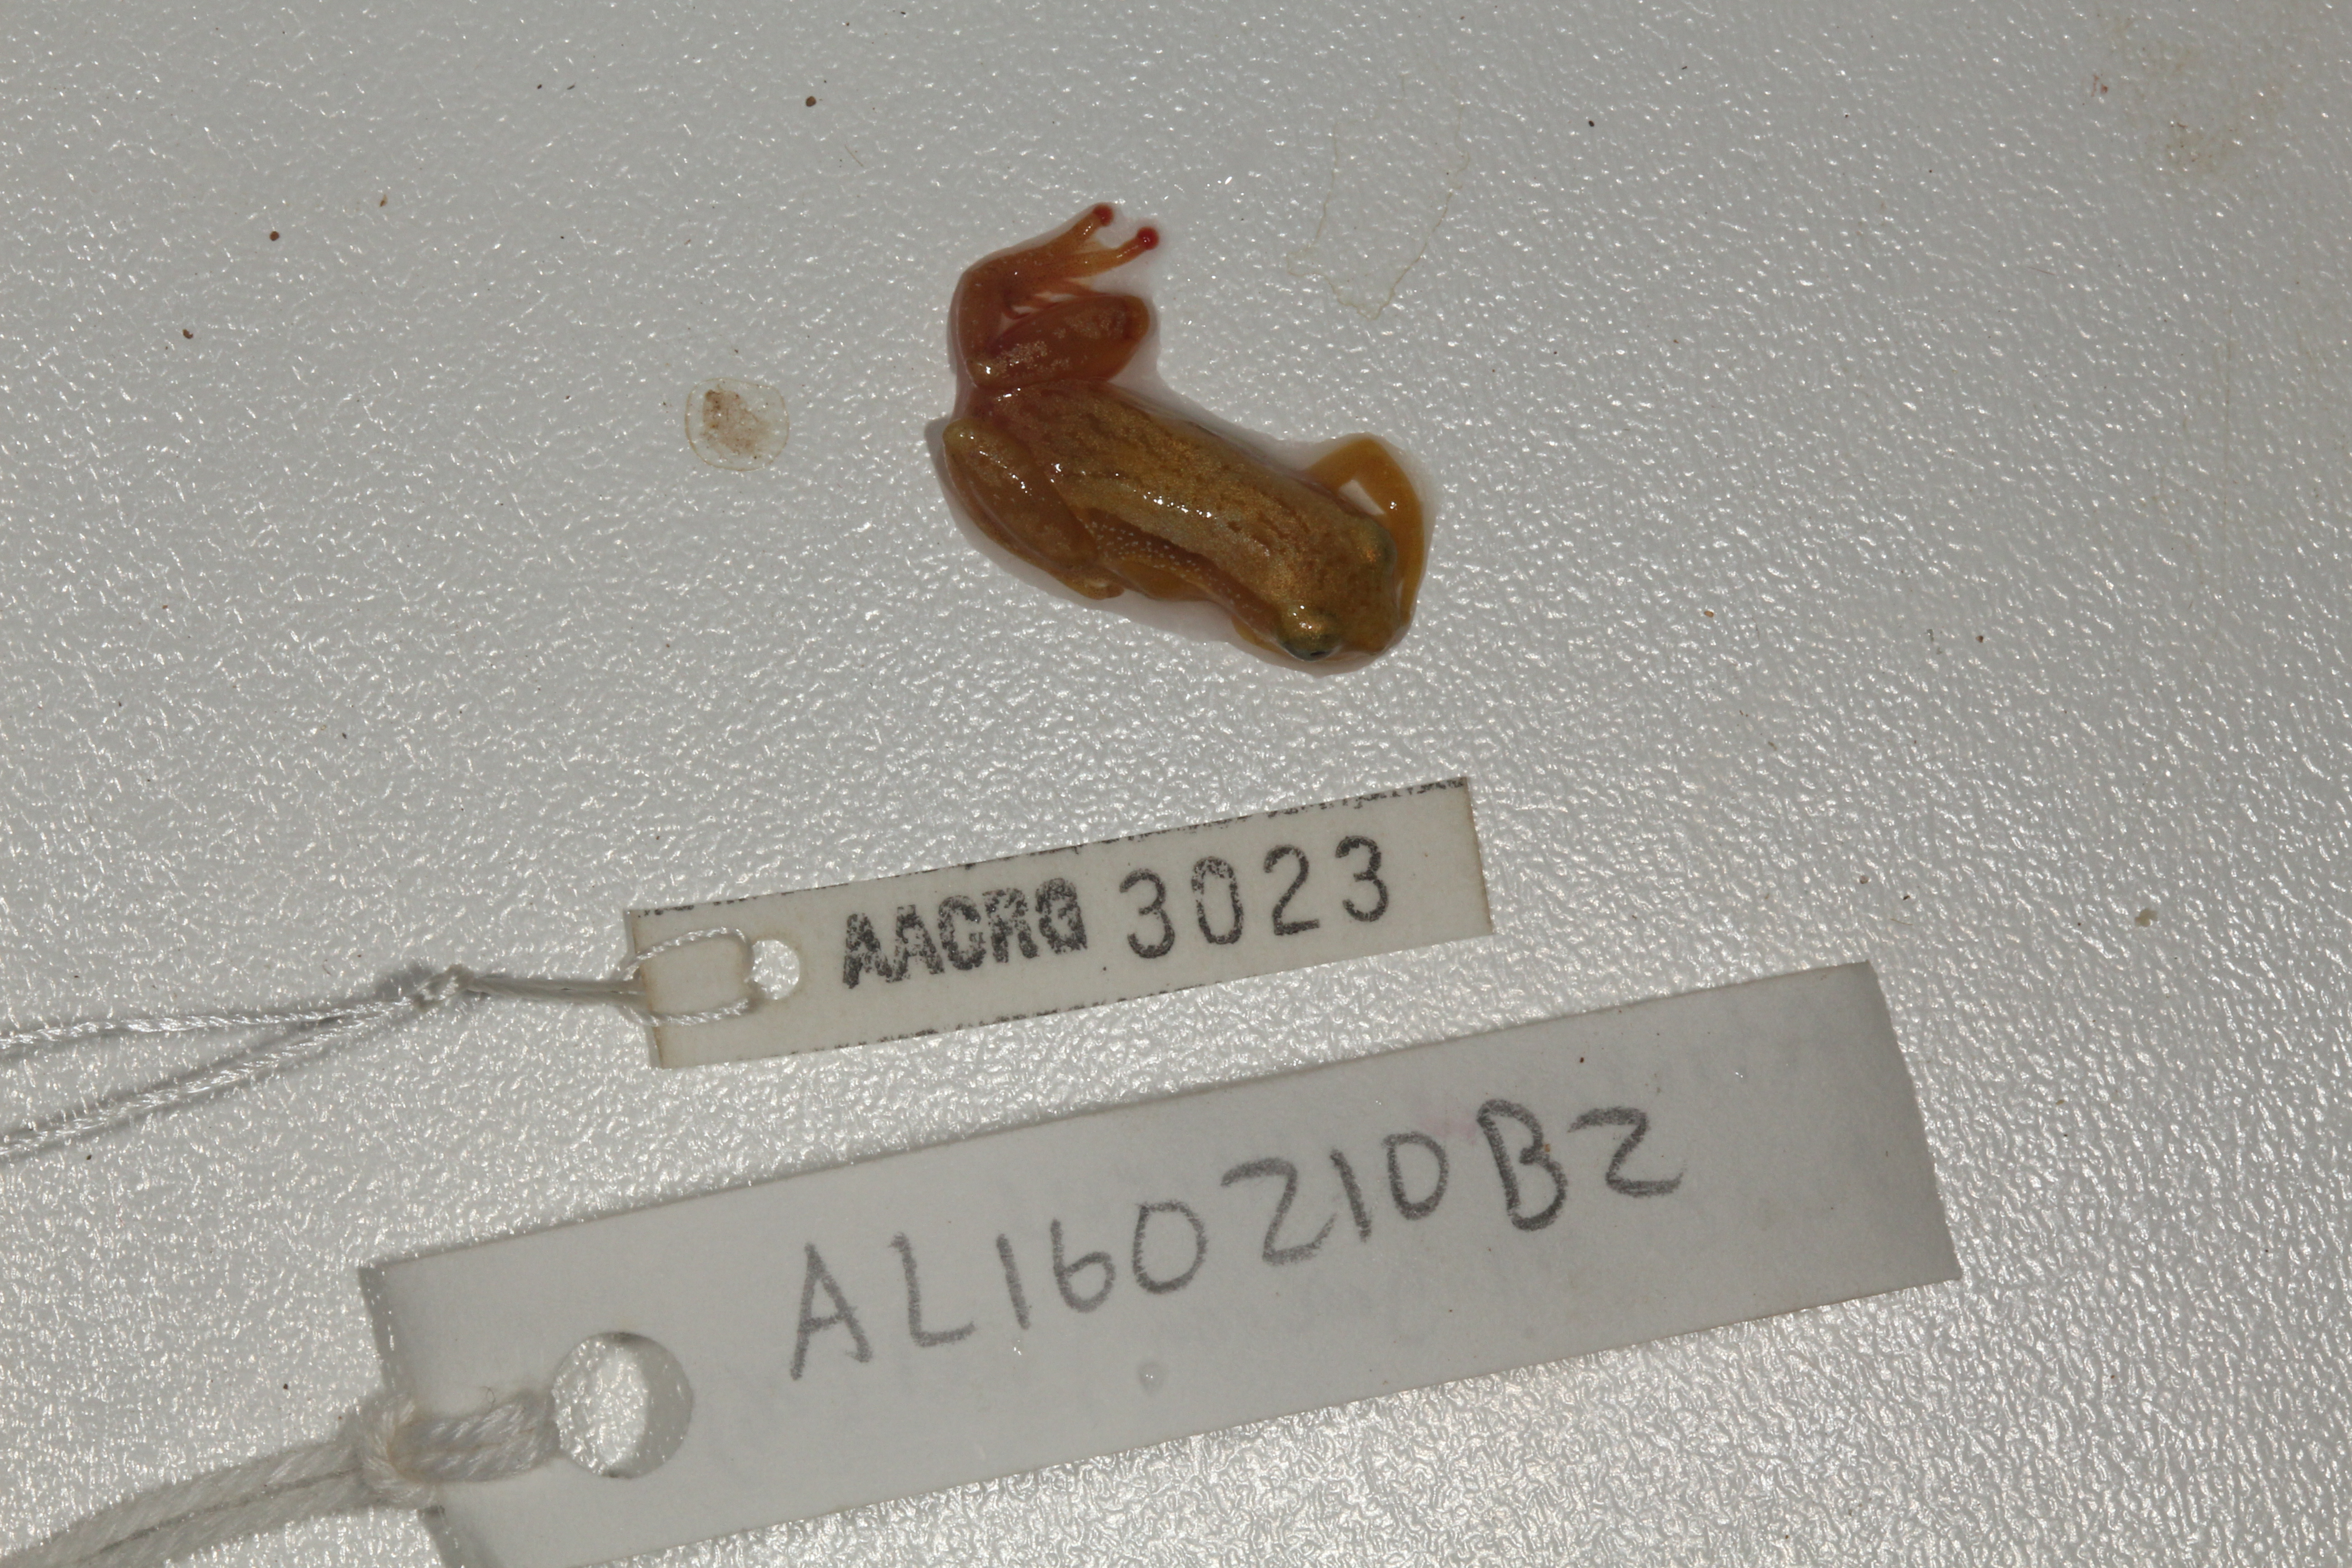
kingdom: Animalia
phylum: Chordata
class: Amphibia
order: Anura
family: Hyperoliidae
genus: Afrixalus
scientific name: Afrixalus aureus
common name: Golden banana frog
